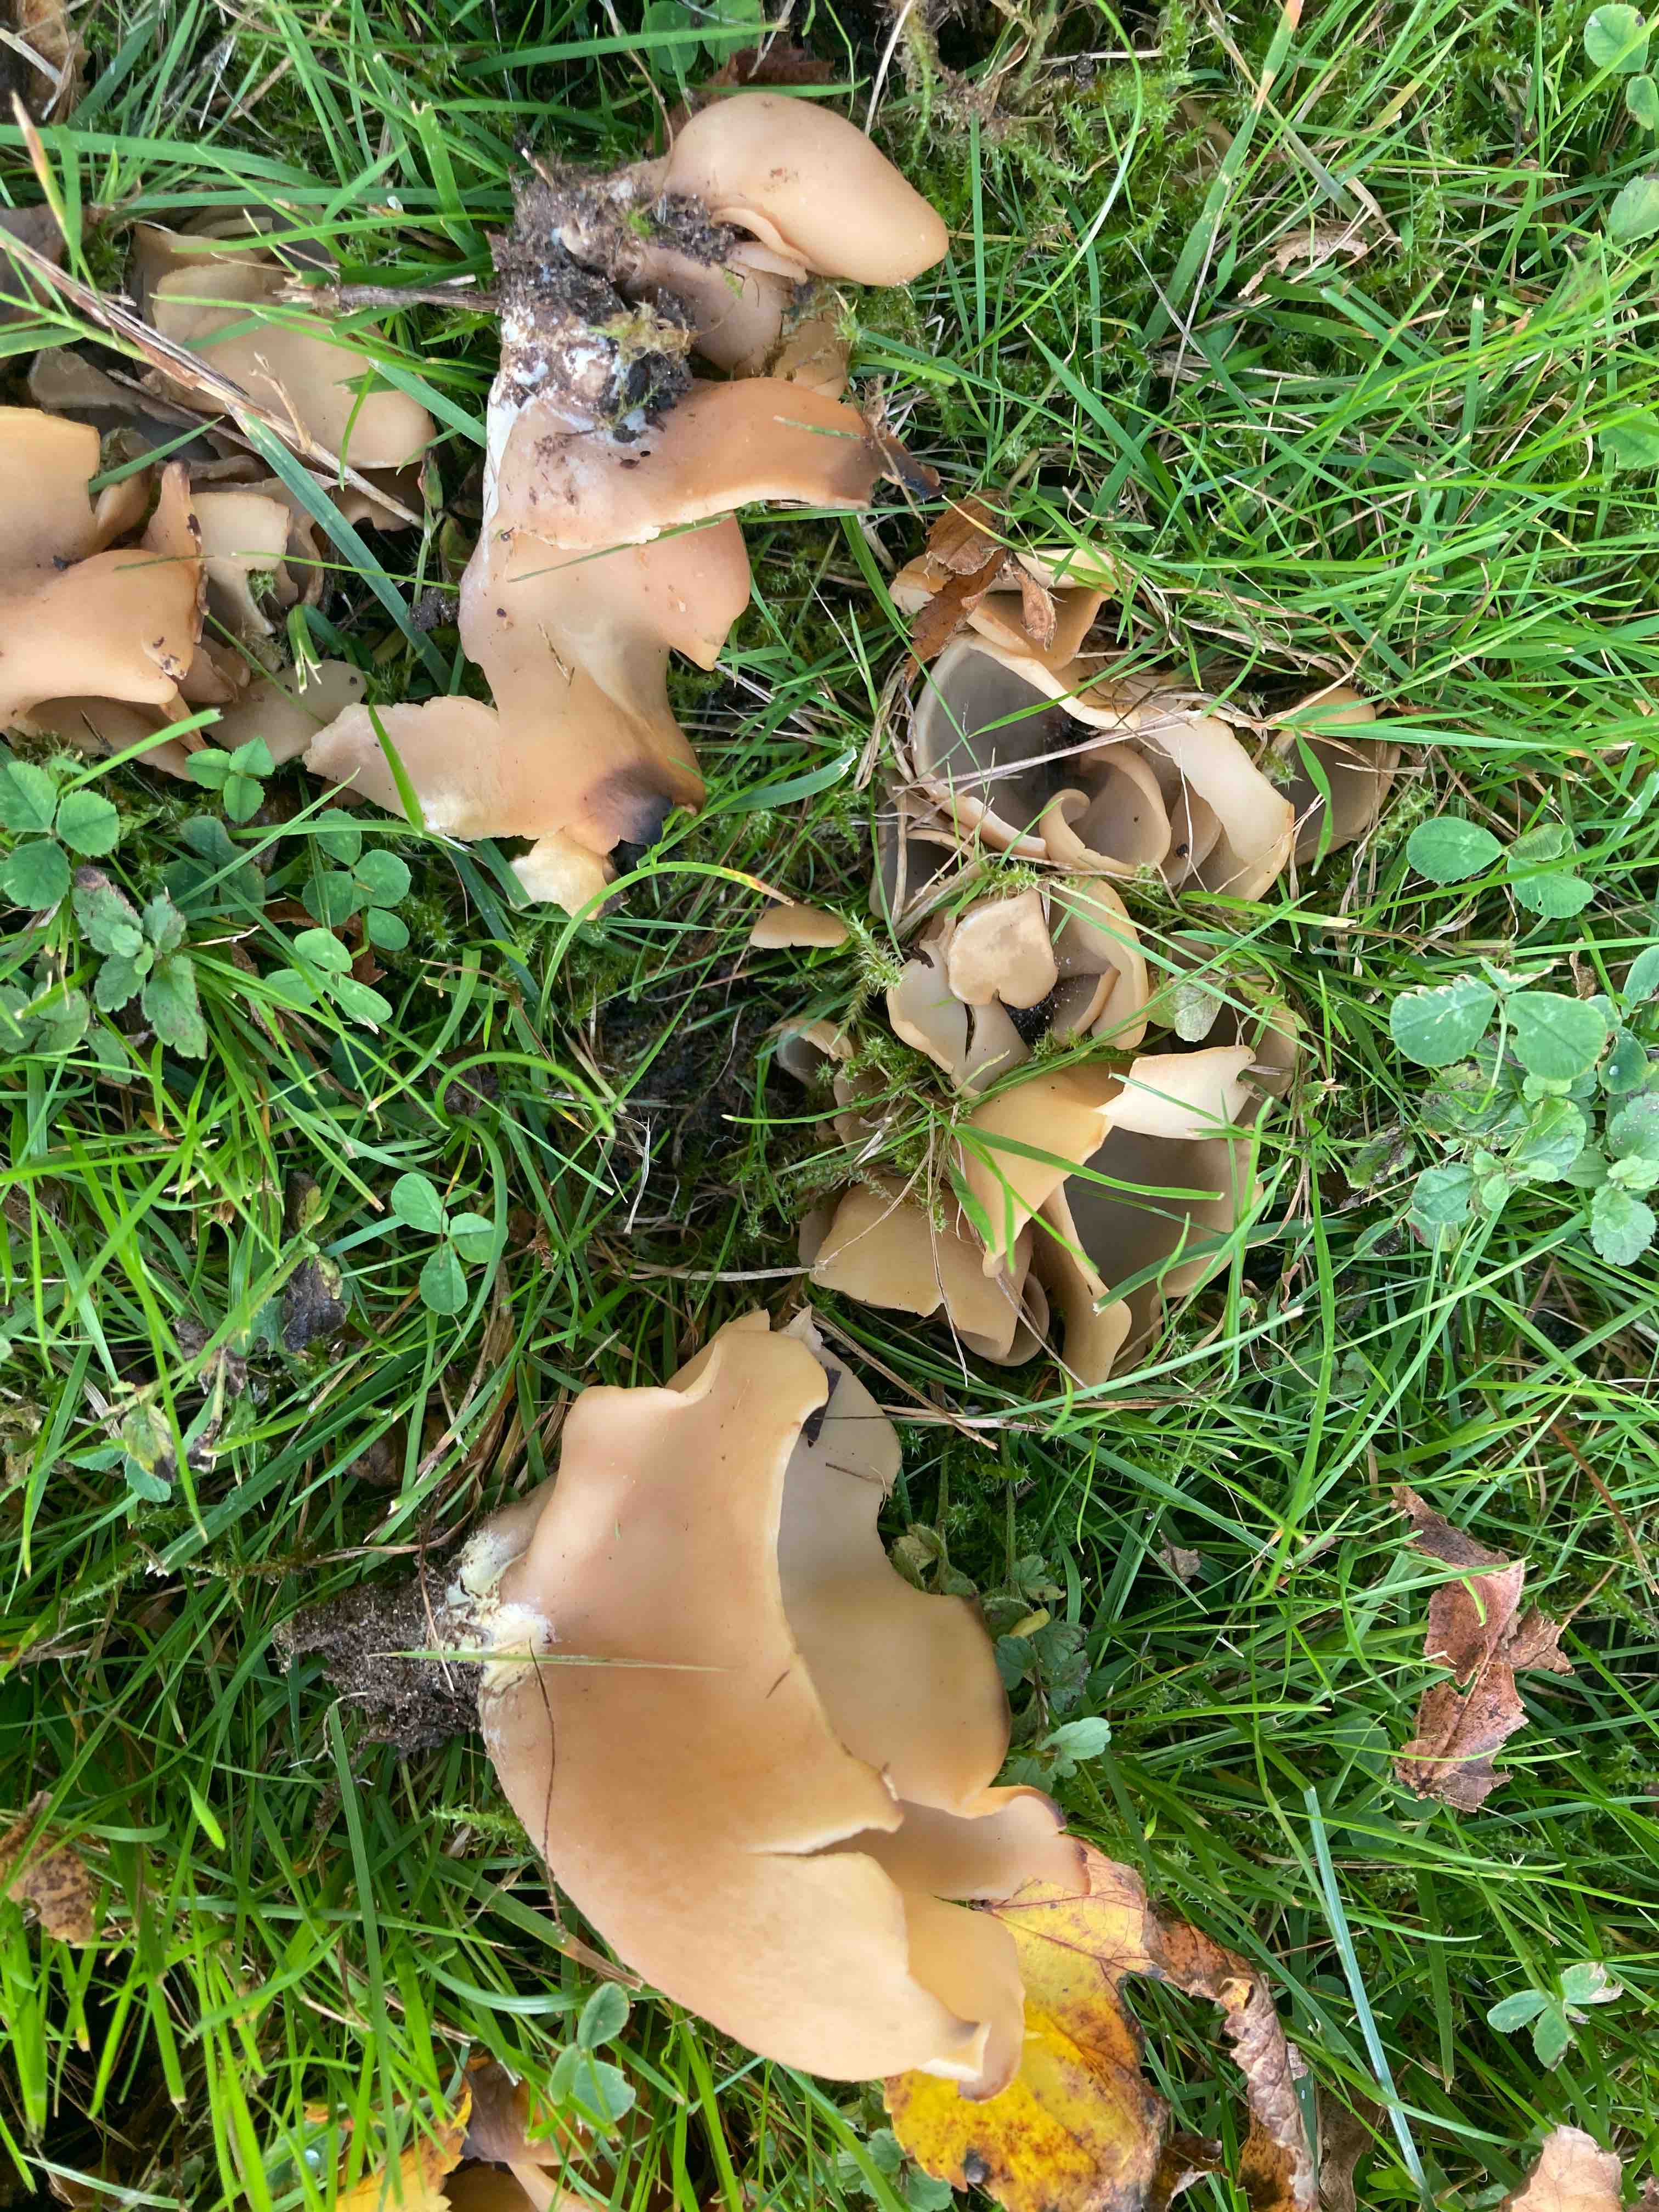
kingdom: Fungi
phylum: Ascomycota
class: Pezizomycetes
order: Pezizales
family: Otideaceae
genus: Otidea
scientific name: Otidea alutacea
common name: læder-ørebæger
